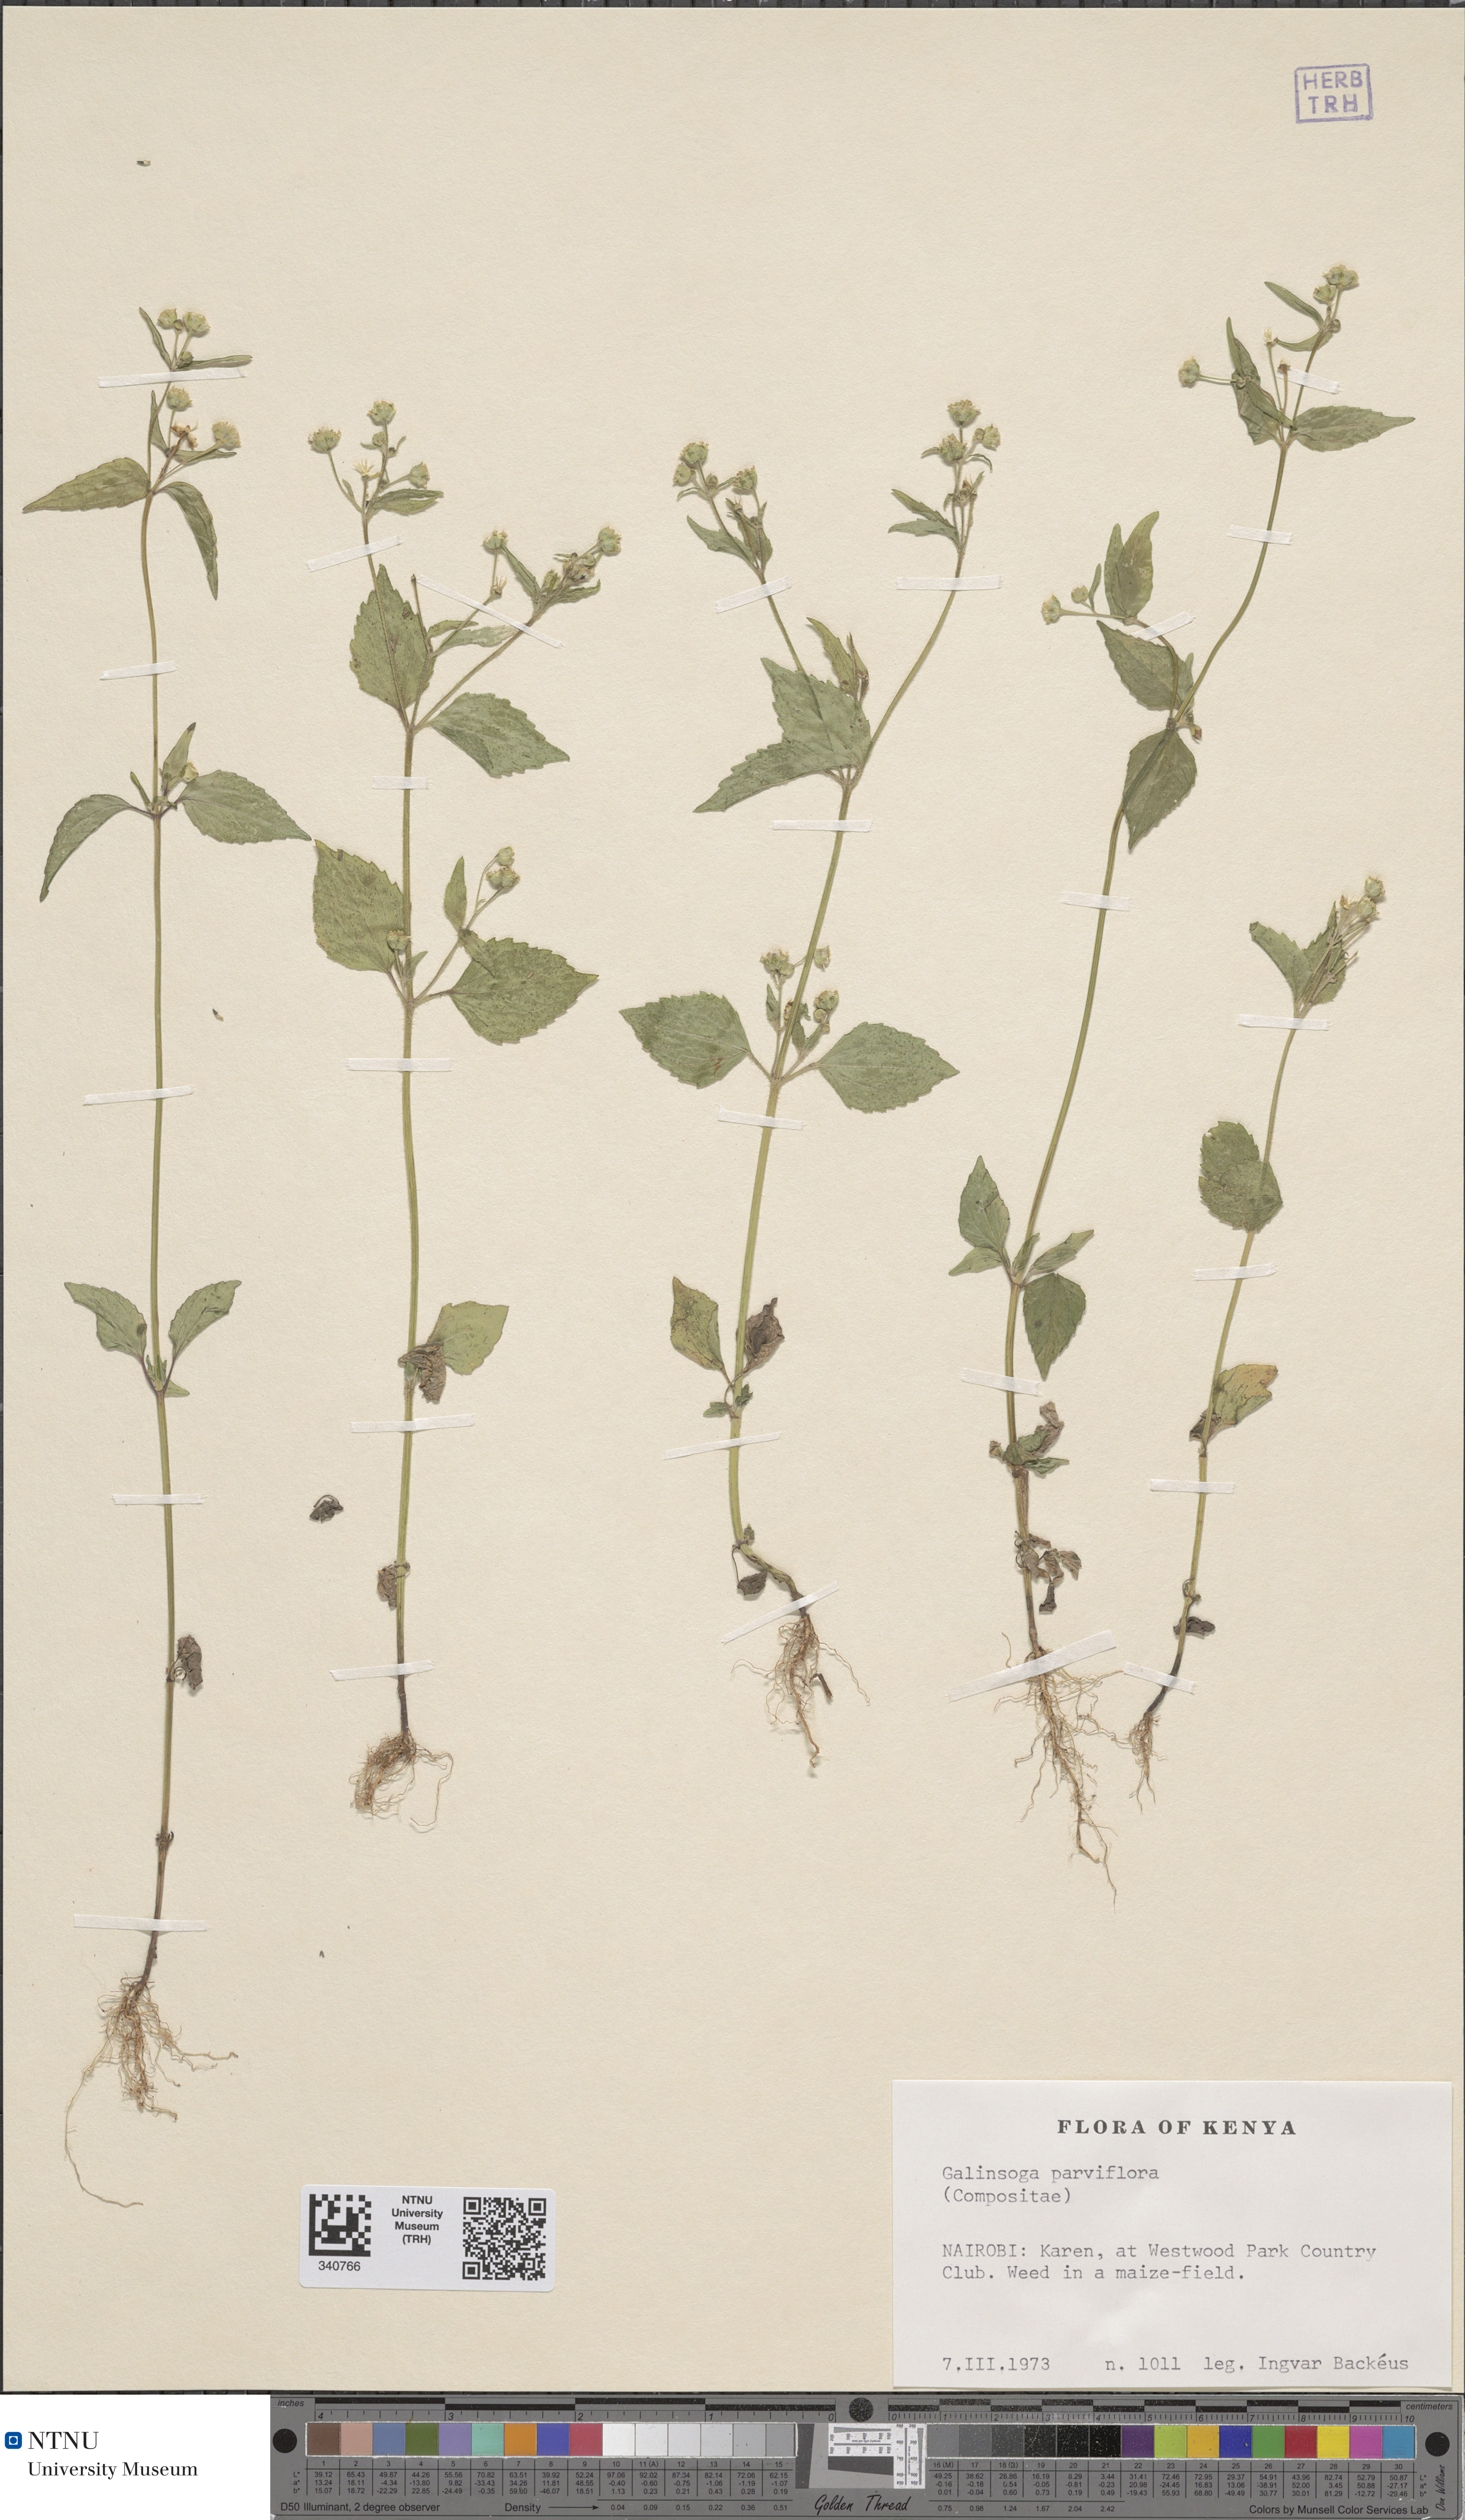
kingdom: Plantae
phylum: Tracheophyta
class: Magnoliopsida
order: Asterales
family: Asteraceae
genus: Galinsoga
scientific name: Galinsoga parviflora
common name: Gallant soldier
